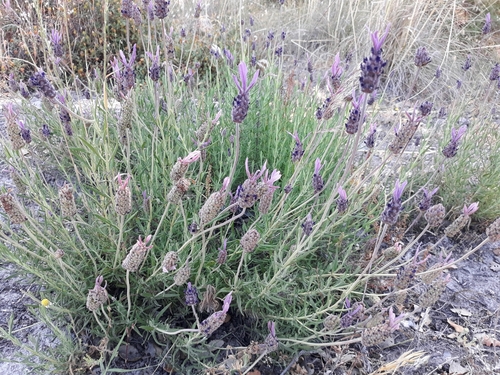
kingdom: Plantae
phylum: Tracheophyta
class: Magnoliopsida
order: Lamiales
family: Lamiaceae
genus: Lavandula
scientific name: Lavandula pedunculata
